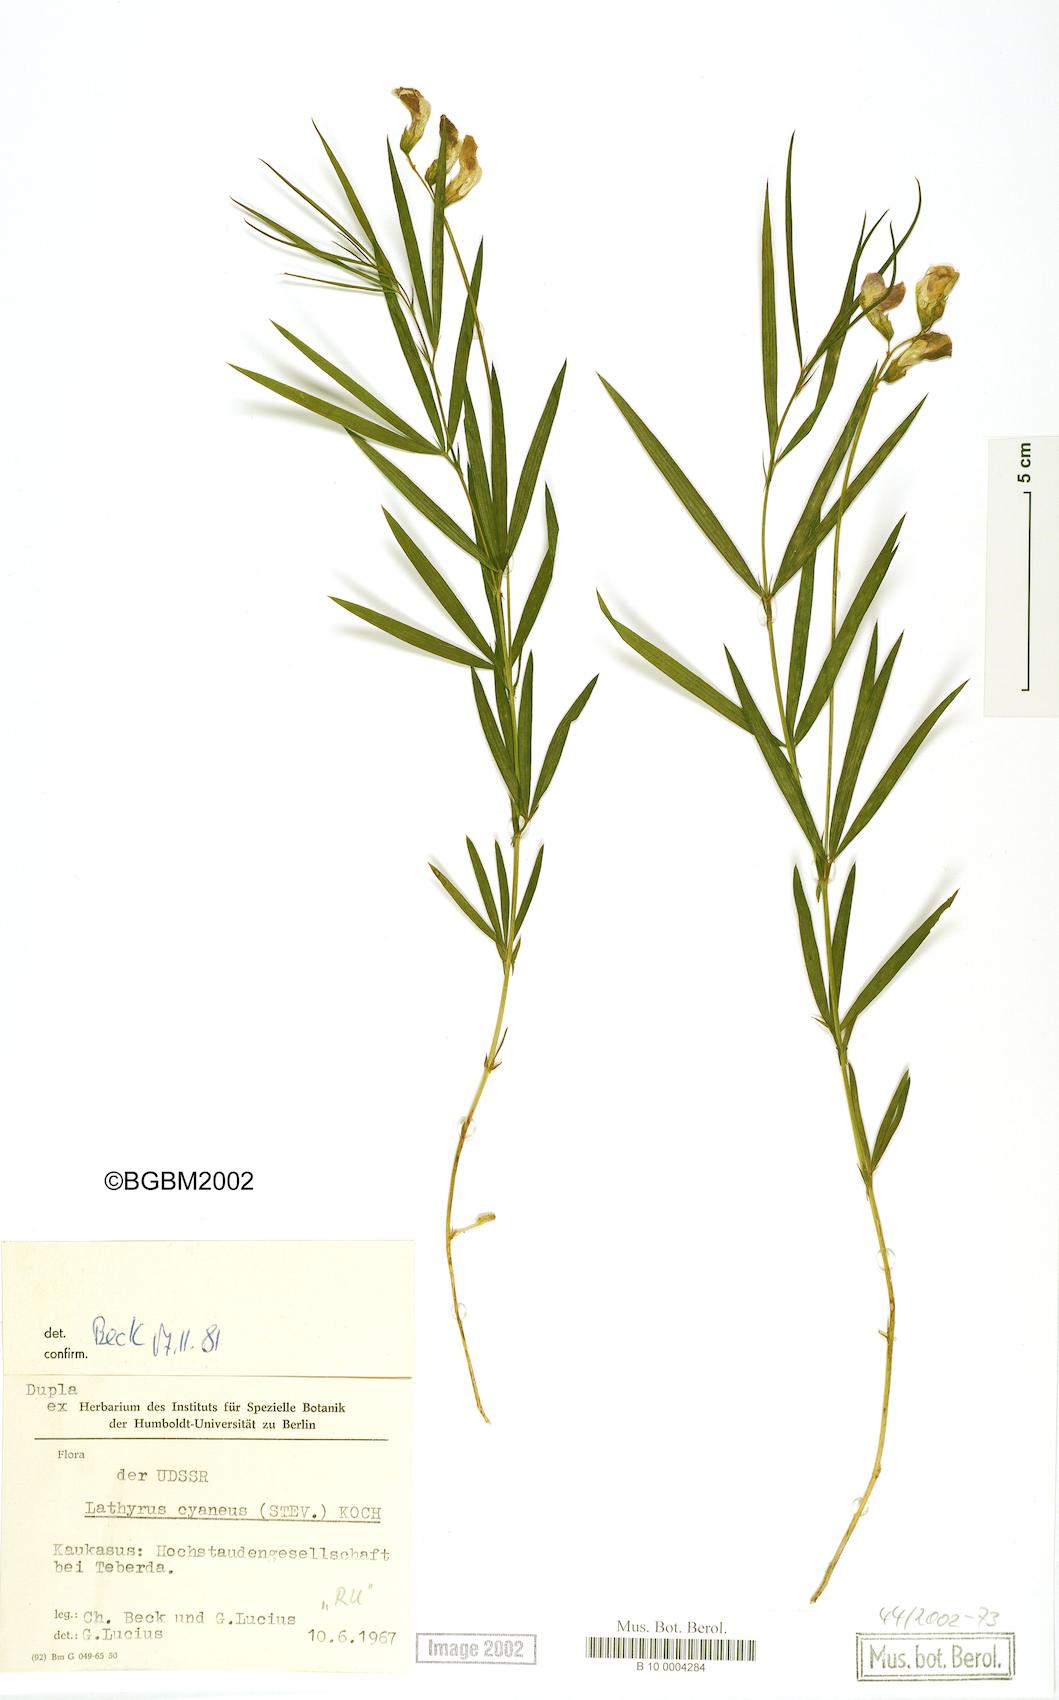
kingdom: Plantae
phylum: Tracheophyta
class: Magnoliopsida
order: Fabales
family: Fabaceae
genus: Lathyrus
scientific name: Lathyrus cyaneus
